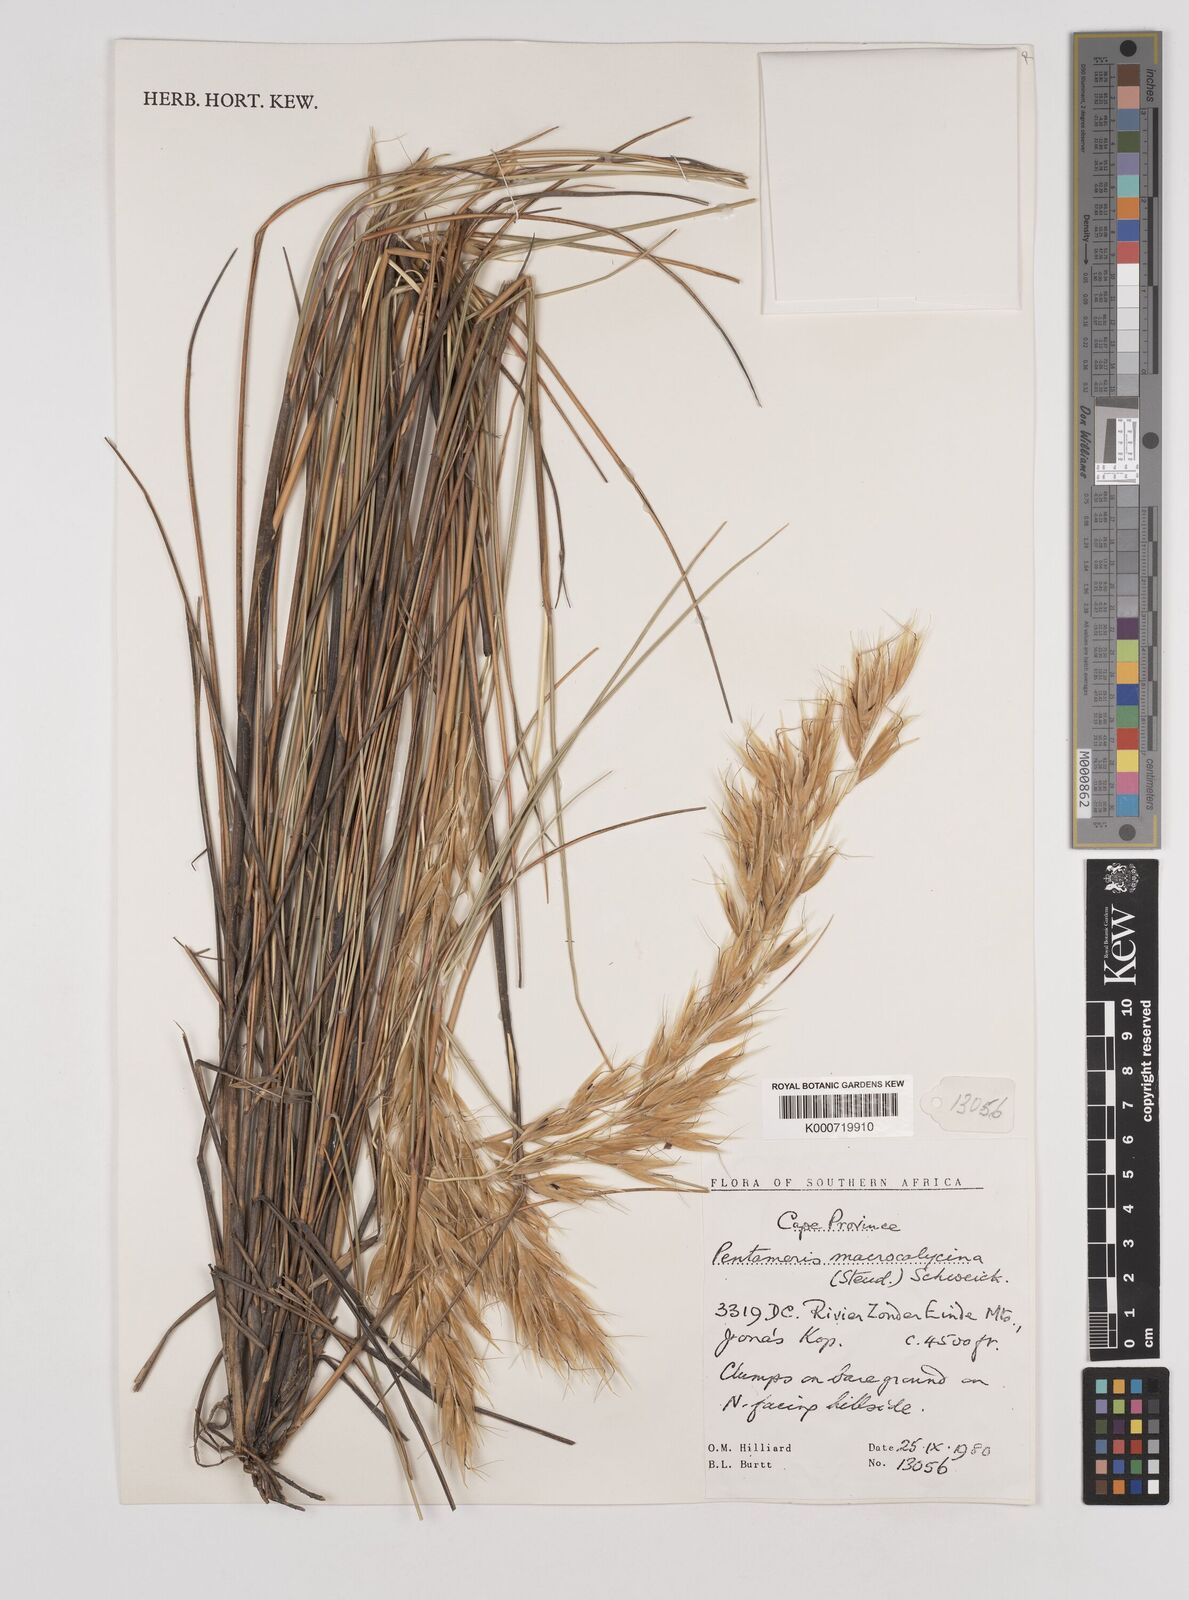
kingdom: Plantae
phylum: Tracheophyta
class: Liliopsida
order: Poales
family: Poaceae
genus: Pentameris
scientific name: Pentameris macrocalycina
